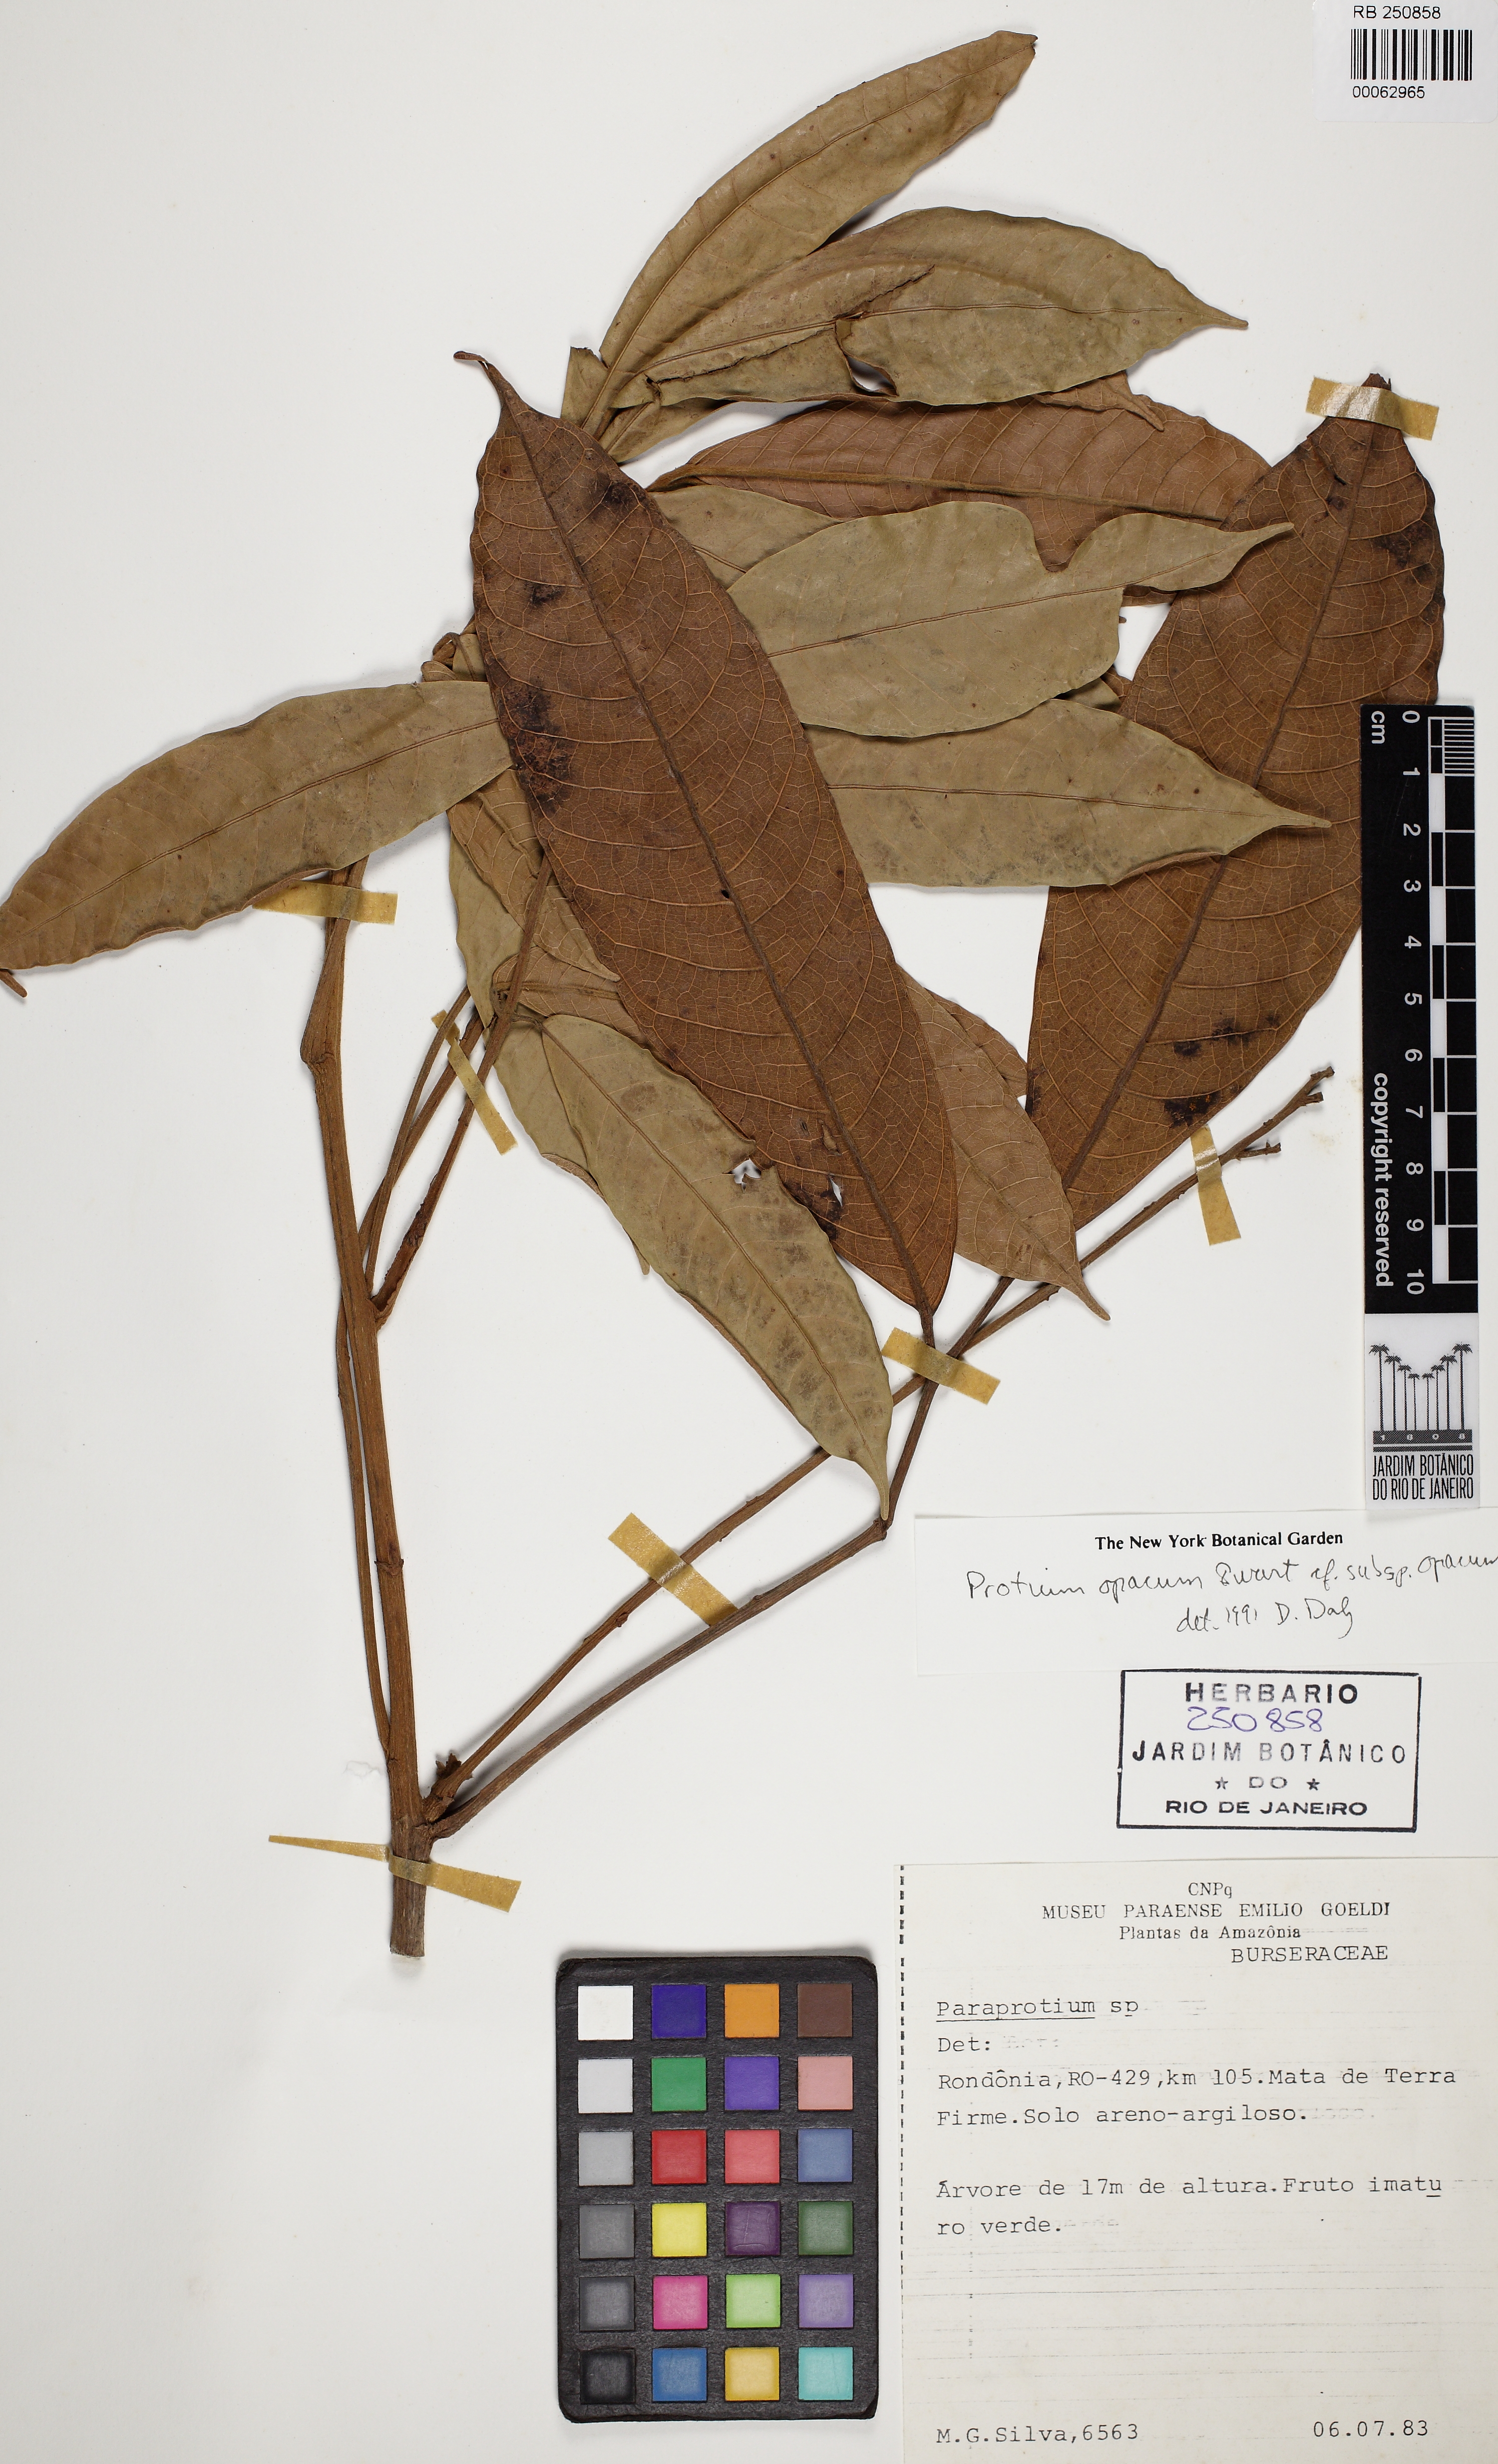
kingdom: Plantae
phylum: Tracheophyta
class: Magnoliopsida
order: Sapindales
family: Burseraceae
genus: Protium
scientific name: Protium opacum
